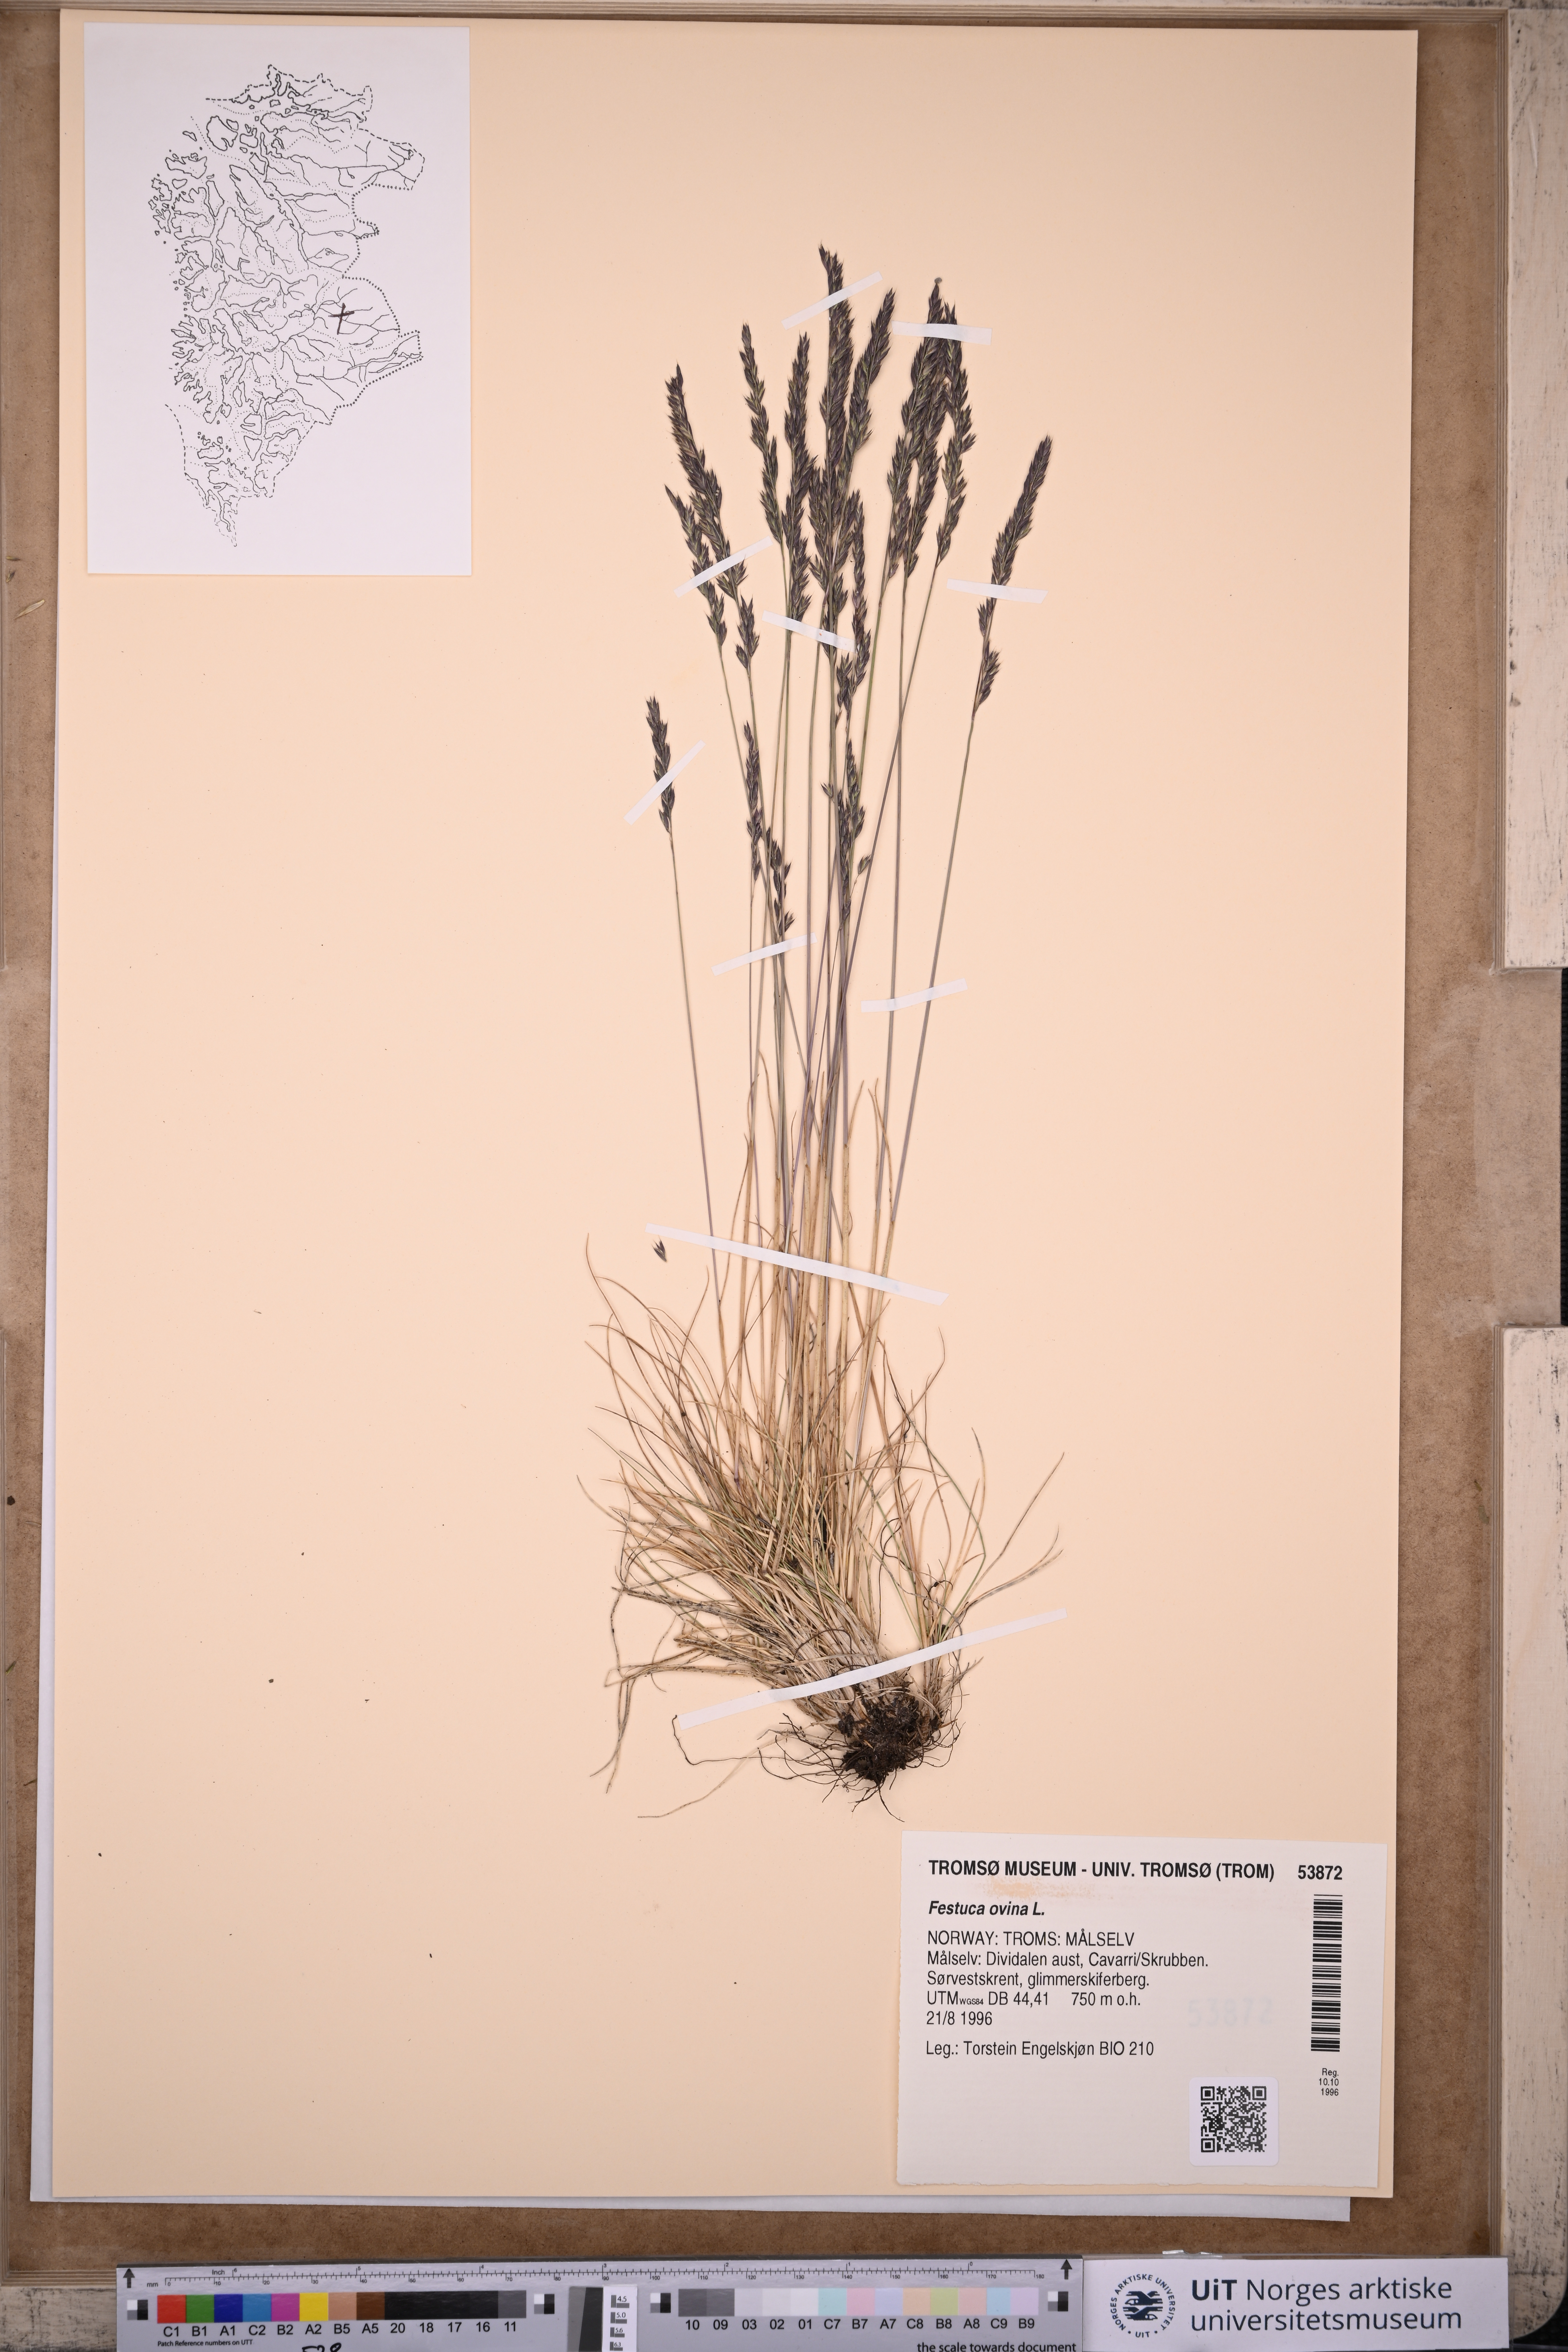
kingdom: Plantae
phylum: Tracheophyta
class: Liliopsida
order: Poales
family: Poaceae
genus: Festuca
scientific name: Festuca ovina
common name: Sheep fescue
